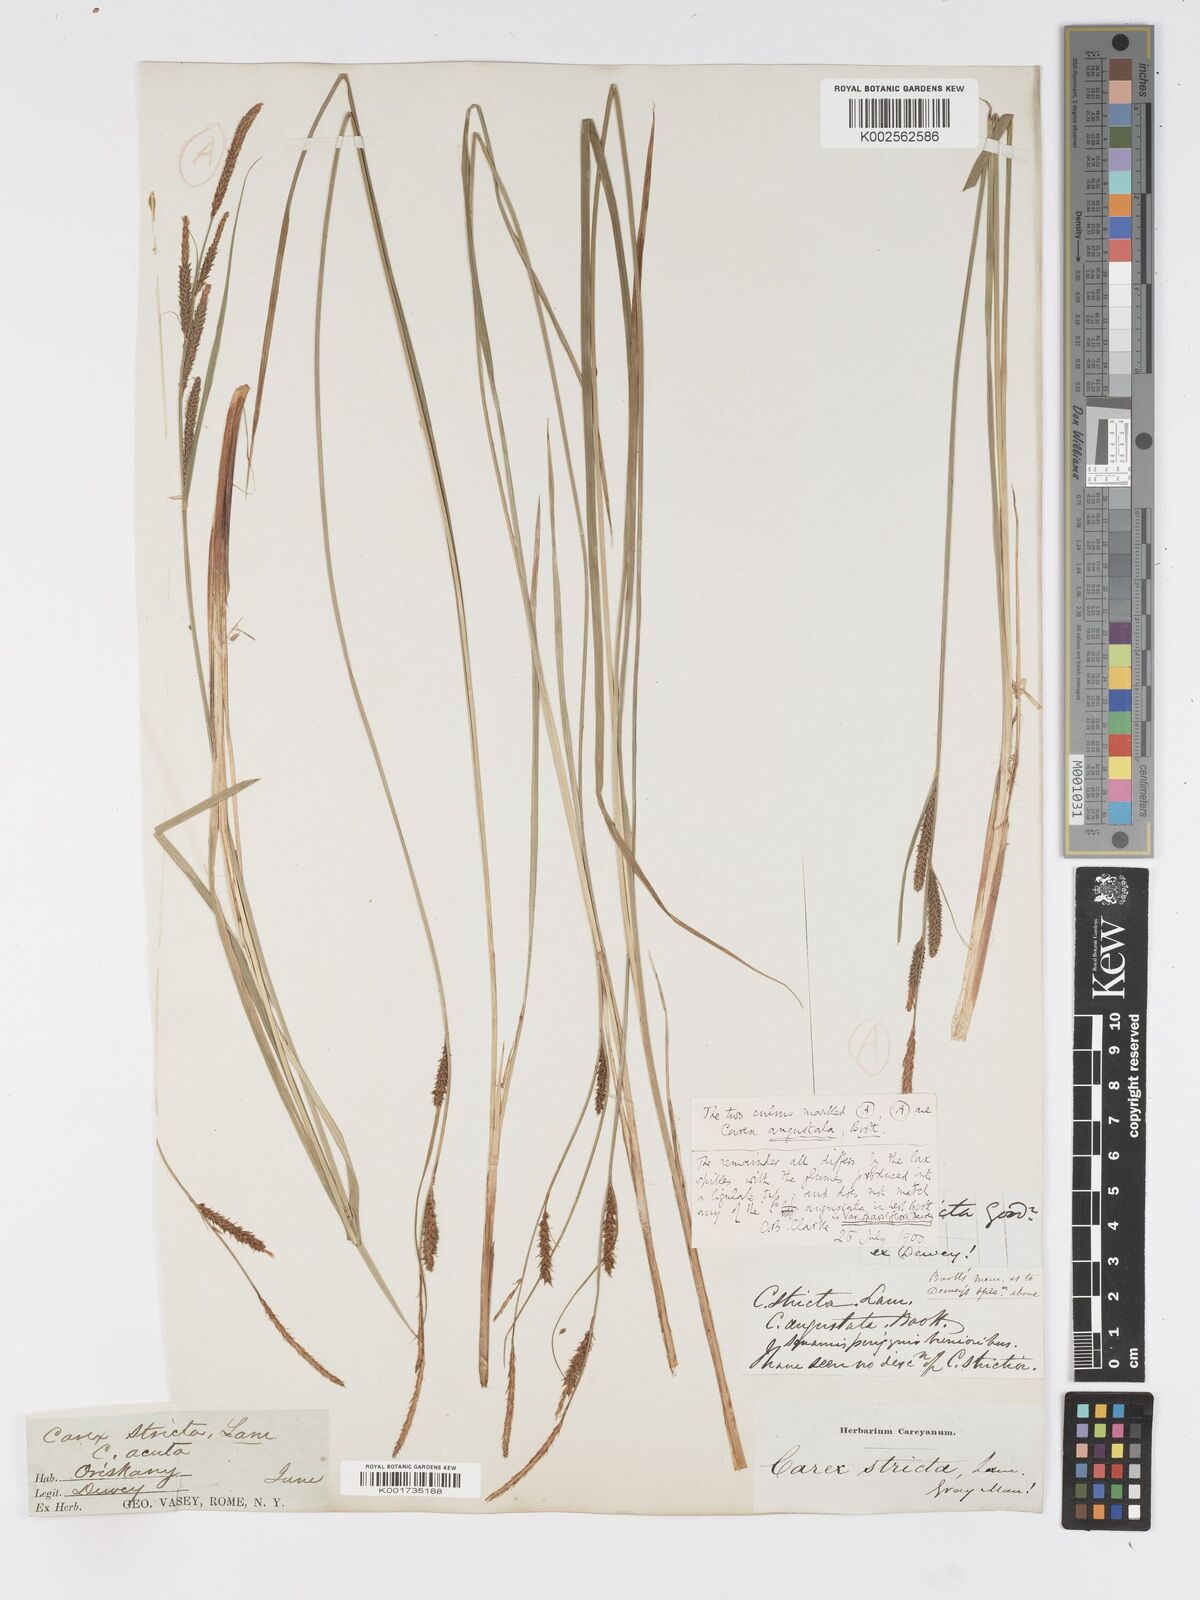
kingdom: Plantae
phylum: Tracheophyta
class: Liliopsida
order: Poales
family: Cyperaceae
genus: Carex
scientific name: Carex haydenii
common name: Hayden's sedge
